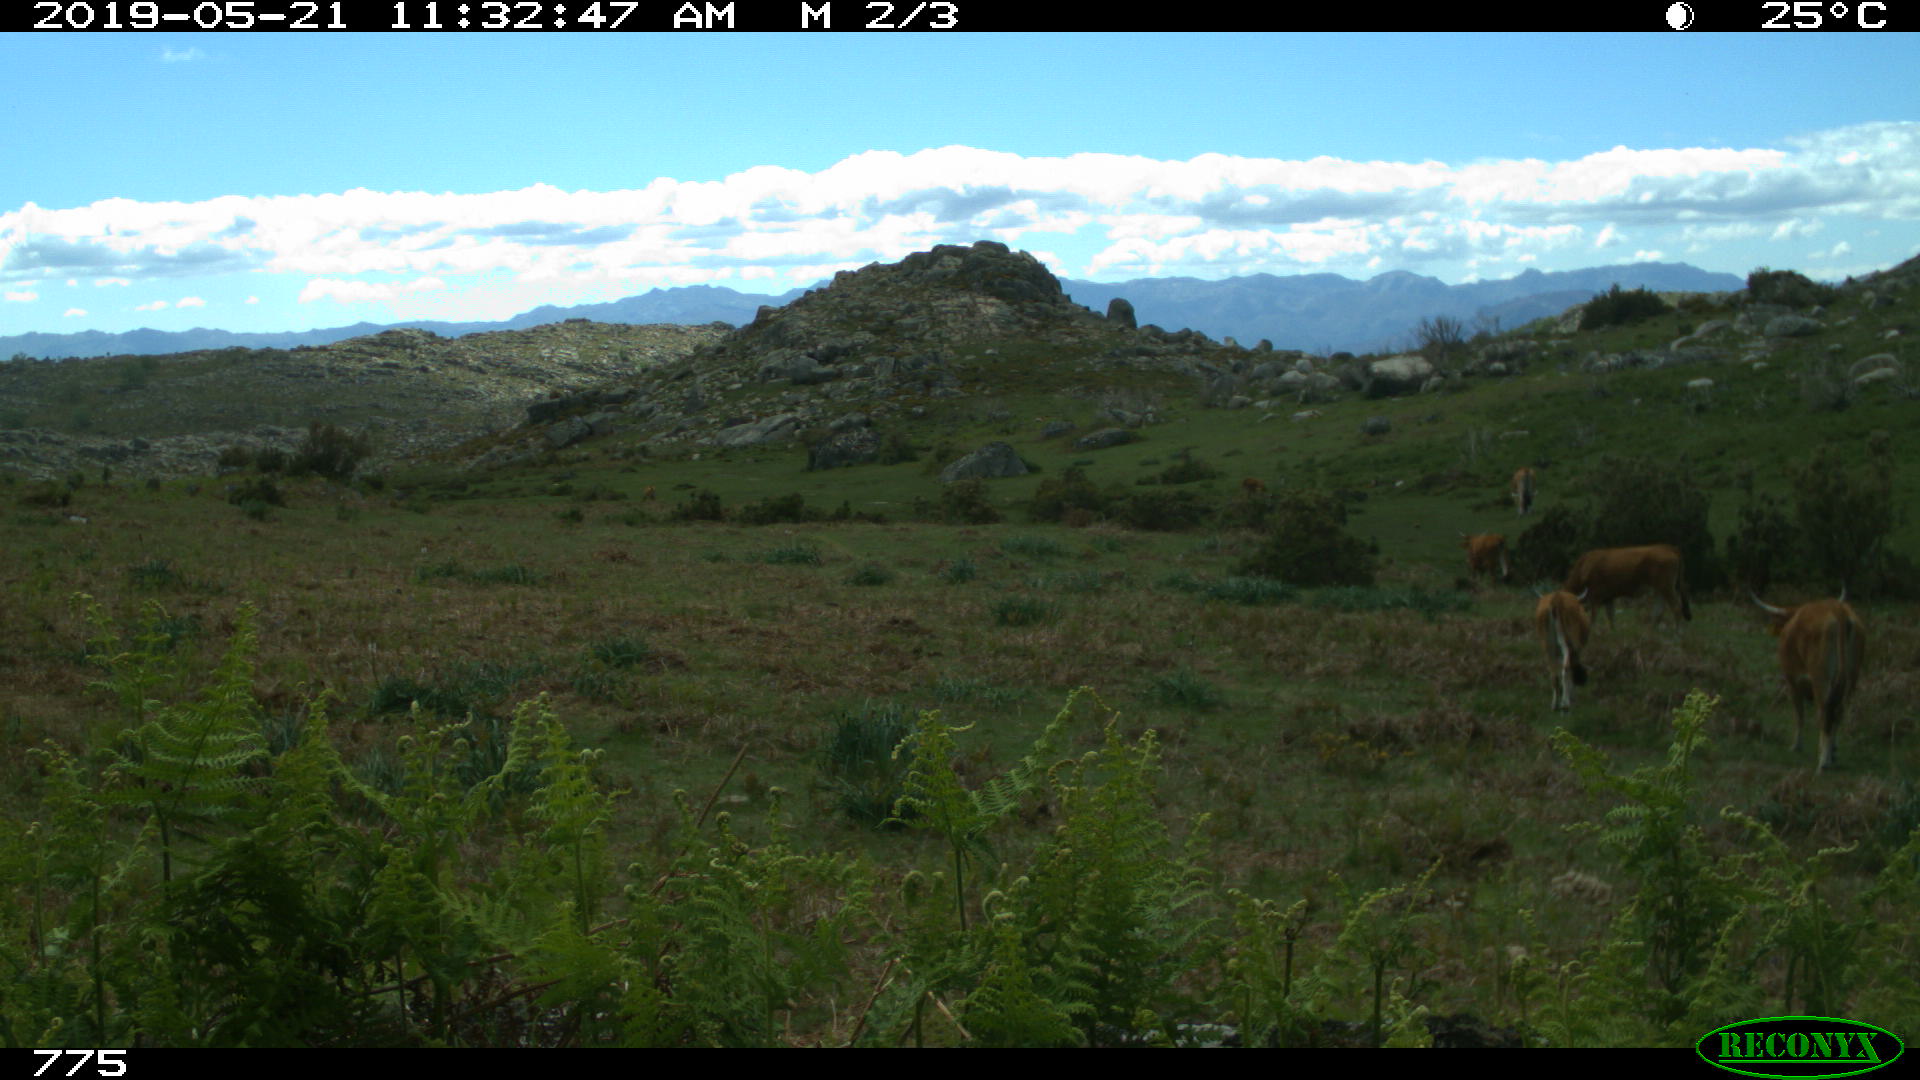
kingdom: Animalia
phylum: Chordata
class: Mammalia
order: Artiodactyla
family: Bovidae
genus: Bos
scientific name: Bos taurus
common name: Domesticated cattle
